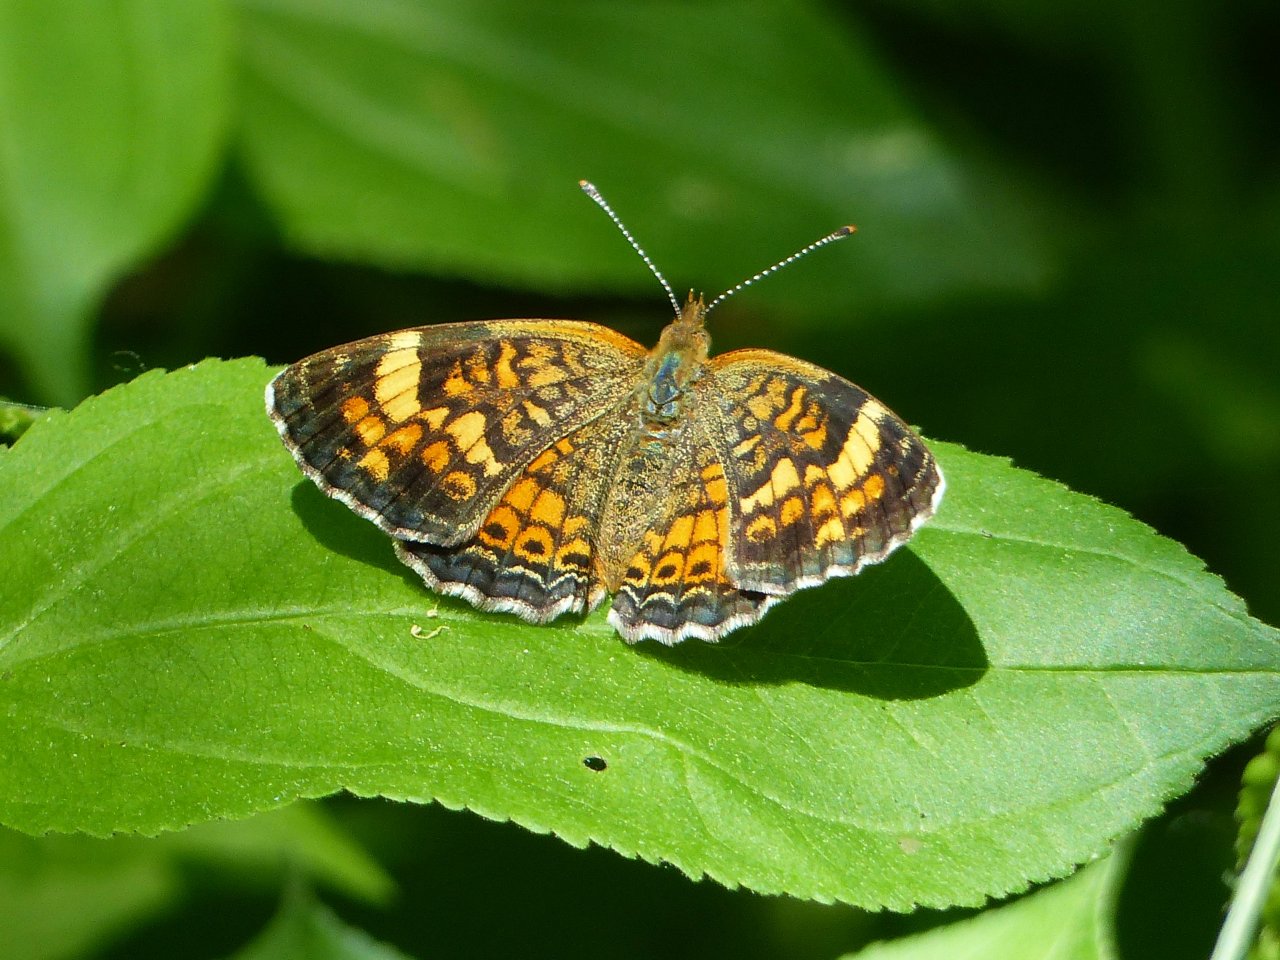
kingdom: Animalia
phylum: Arthropoda
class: Insecta
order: Lepidoptera
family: Nymphalidae
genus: Phyciodes
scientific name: Phyciodes tharos
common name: Northern Crescent
